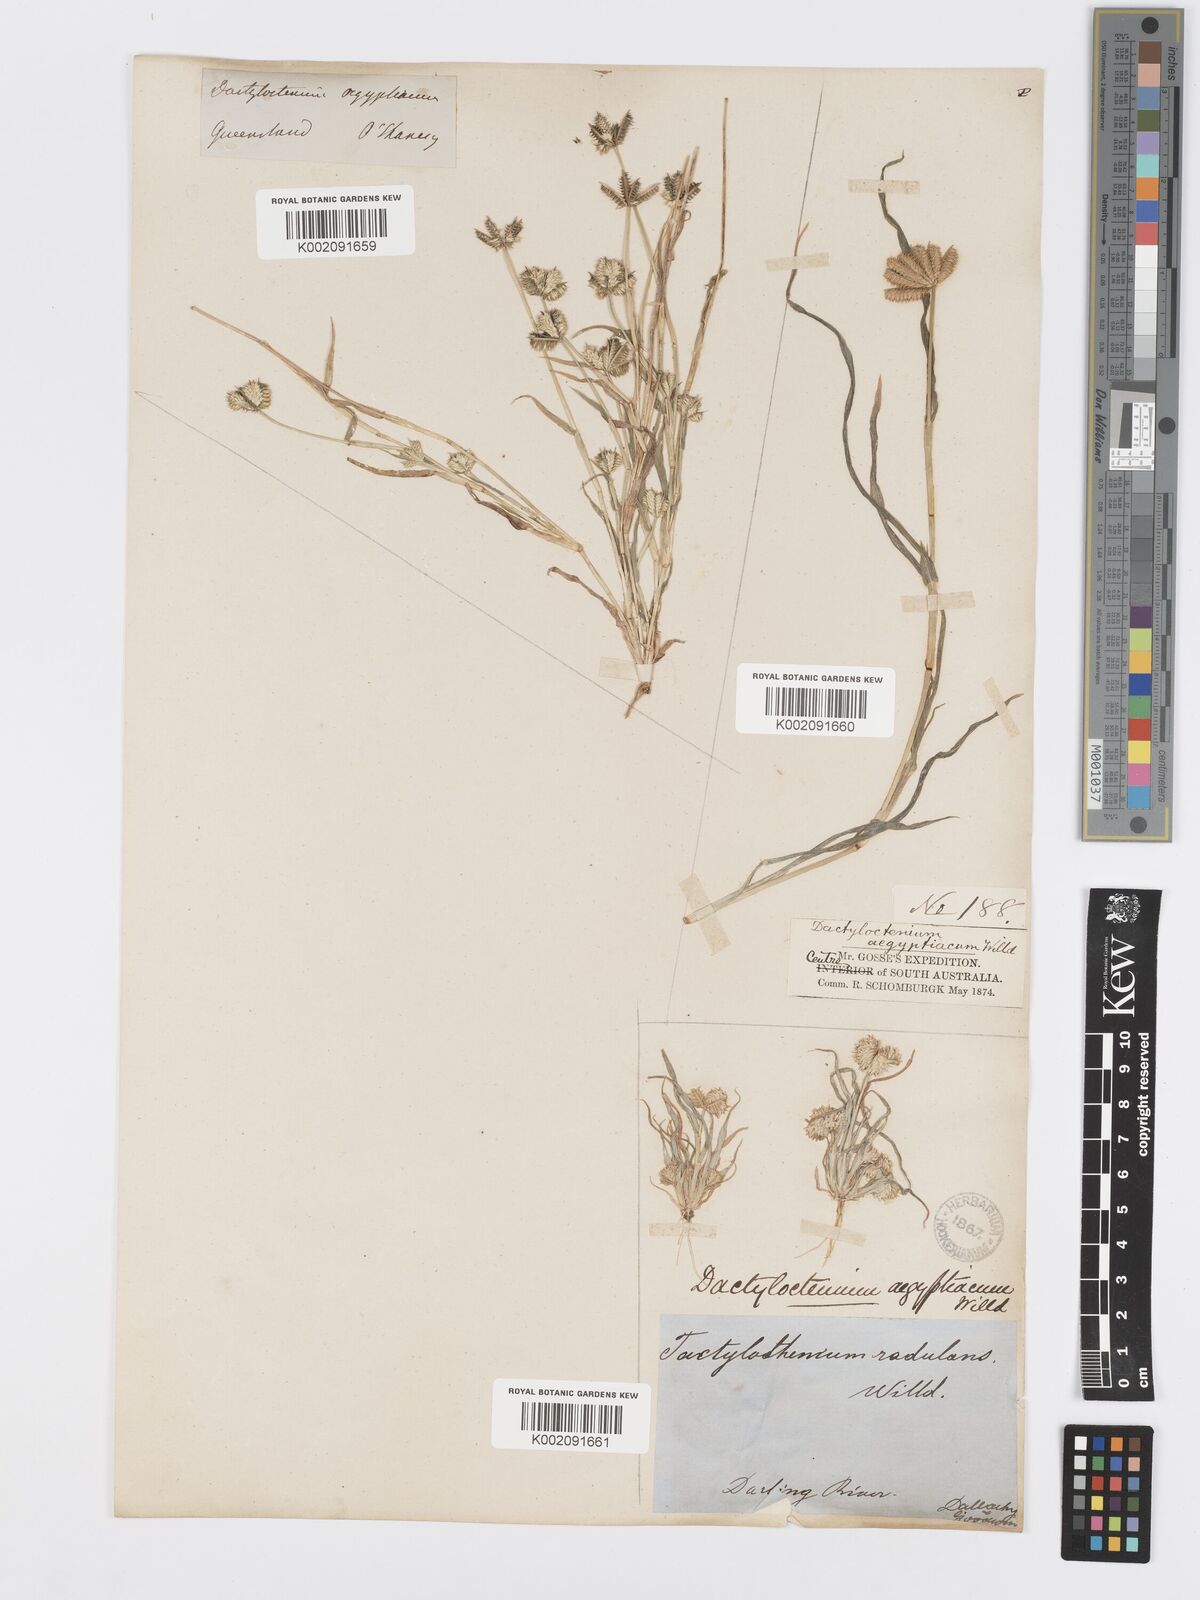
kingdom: Plantae
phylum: Tracheophyta
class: Liliopsida
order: Poales
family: Poaceae
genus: Dactyloctenium
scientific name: Dactyloctenium radulans
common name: Button-grass
